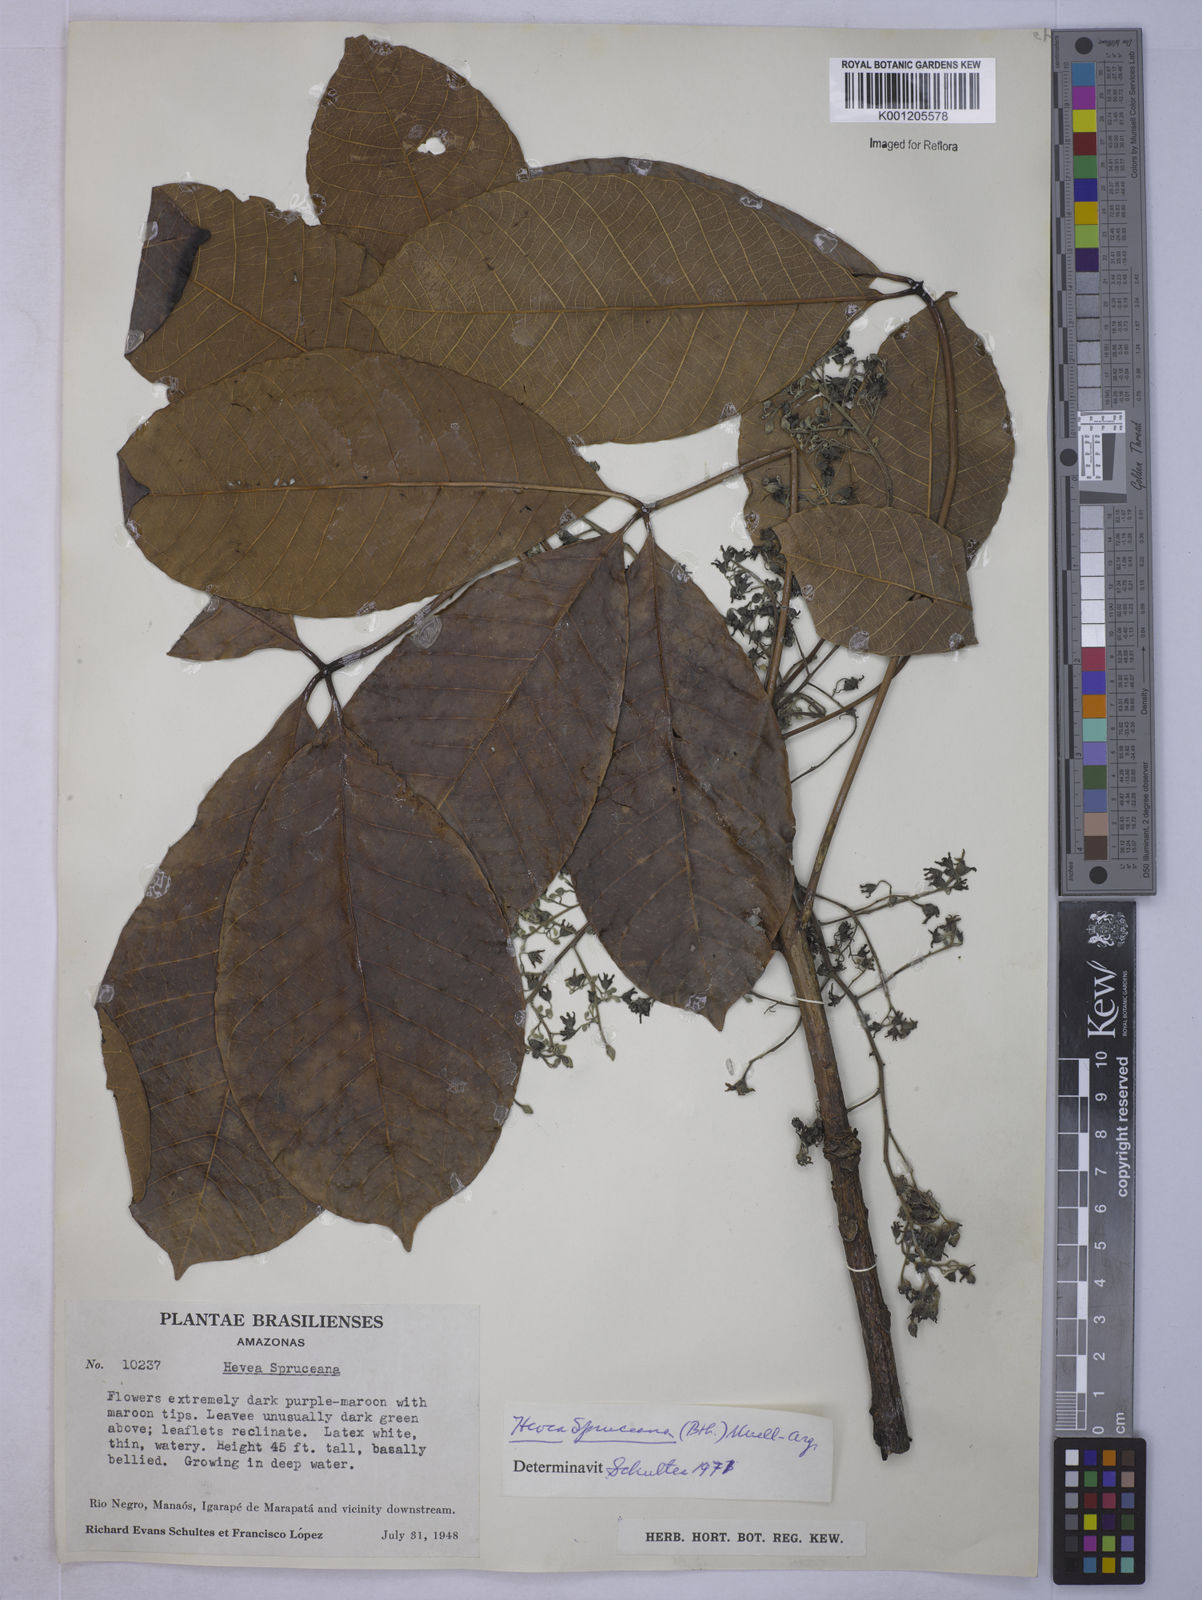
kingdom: Plantae
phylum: Tracheophyta
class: Magnoliopsida
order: Malpighiales
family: Euphorbiaceae
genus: Hevea
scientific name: Hevea
